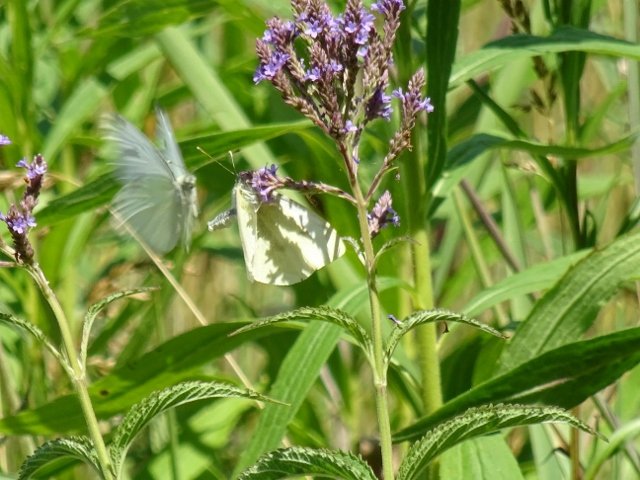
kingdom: Animalia
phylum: Arthropoda
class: Insecta
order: Lepidoptera
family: Pieridae
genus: Pieris
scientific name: Pieris rapae
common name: Cabbage White
